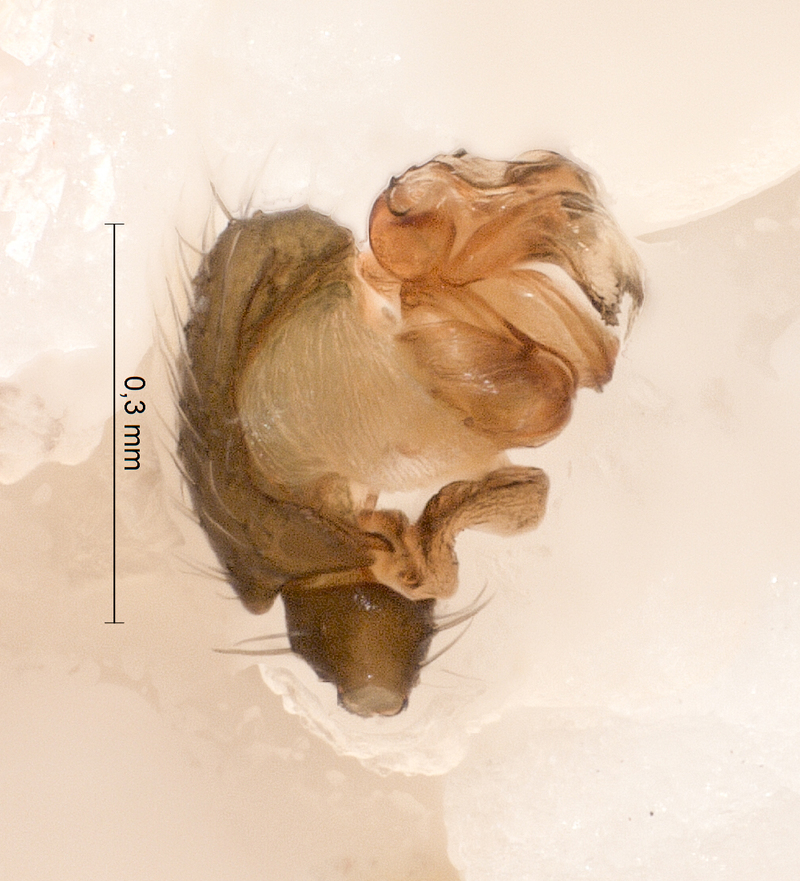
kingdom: Animalia
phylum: Arthropoda
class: Arachnida
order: Araneae
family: Linyphiidae
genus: Agyneta
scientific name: Agyneta affinis
